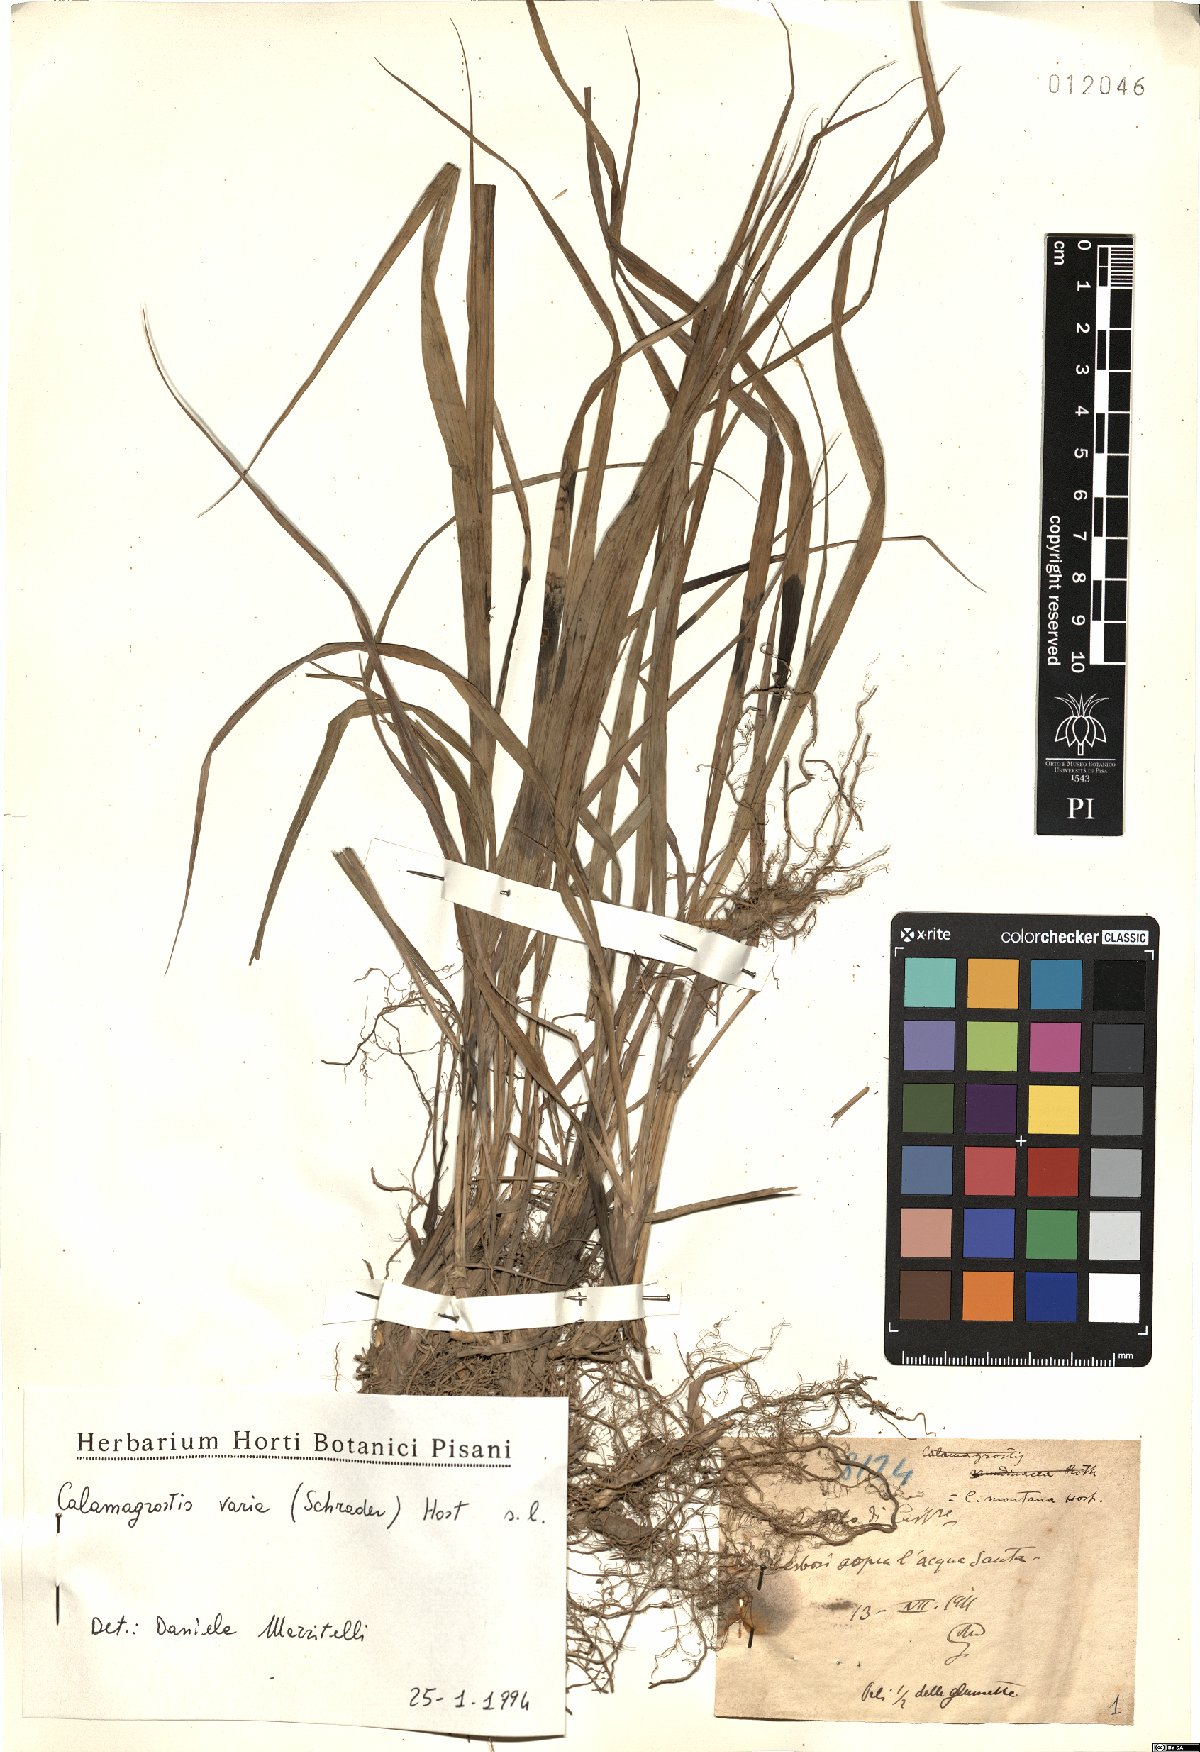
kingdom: Plantae
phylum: Tracheophyta
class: Liliopsida
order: Poales
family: Poaceae
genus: Calamagrostis
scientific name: Calamagrostis varia
